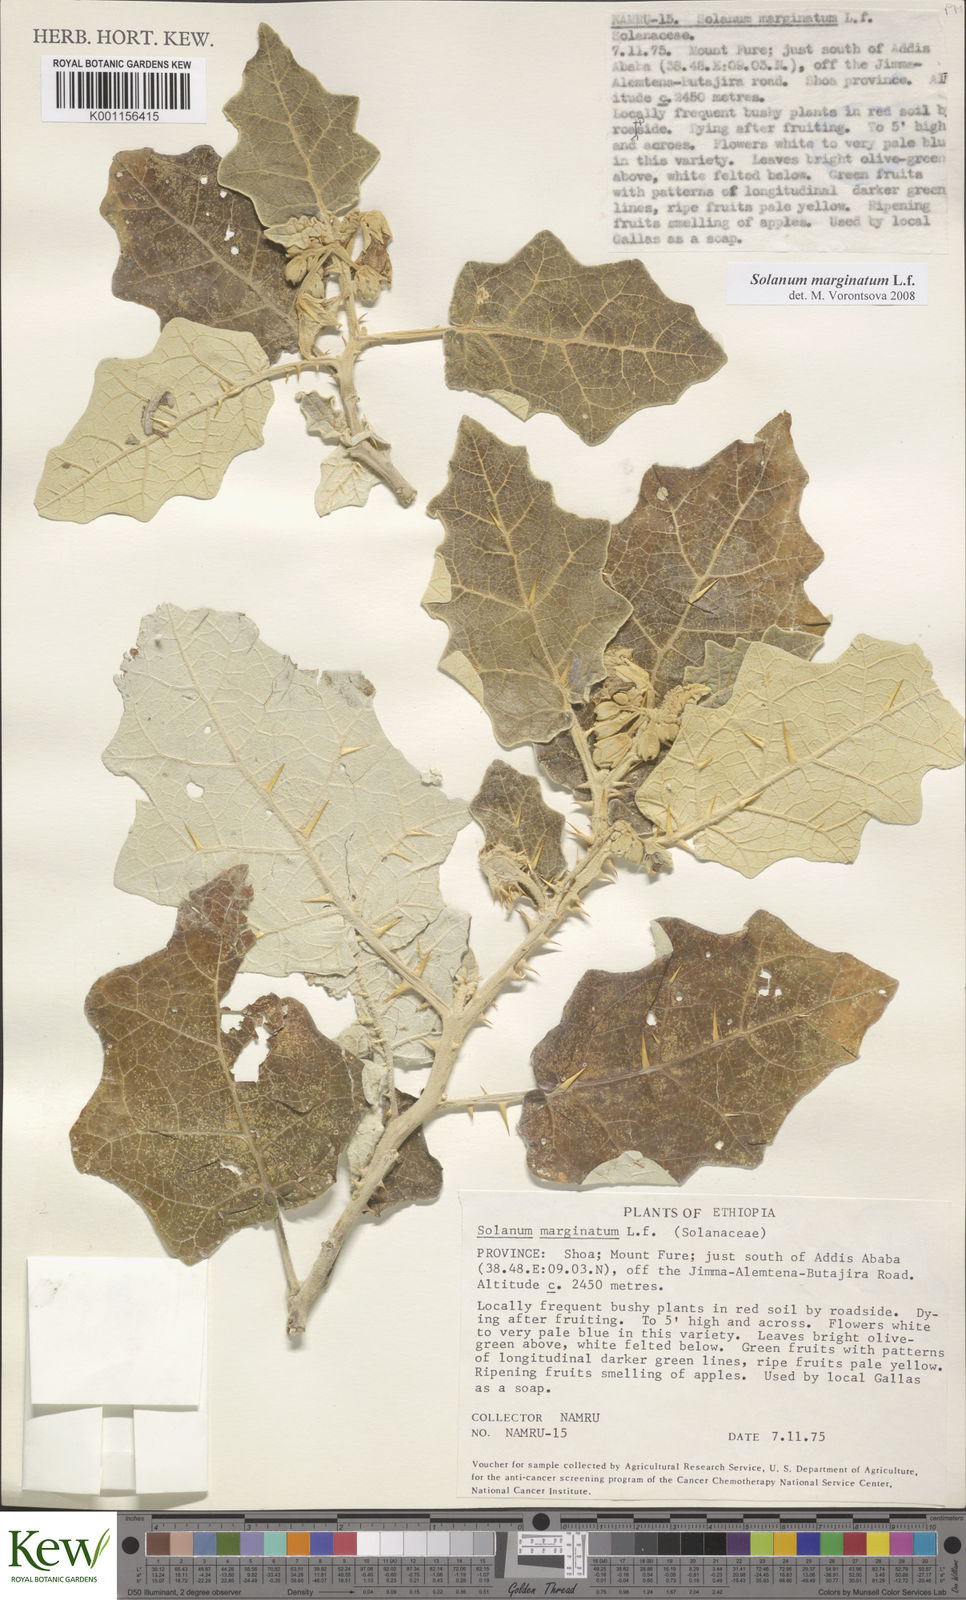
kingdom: Plantae
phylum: Tracheophyta
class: Magnoliopsida
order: Solanales
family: Solanaceae
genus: Solanum
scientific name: Solanum marginatum
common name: Purple african nightshade
